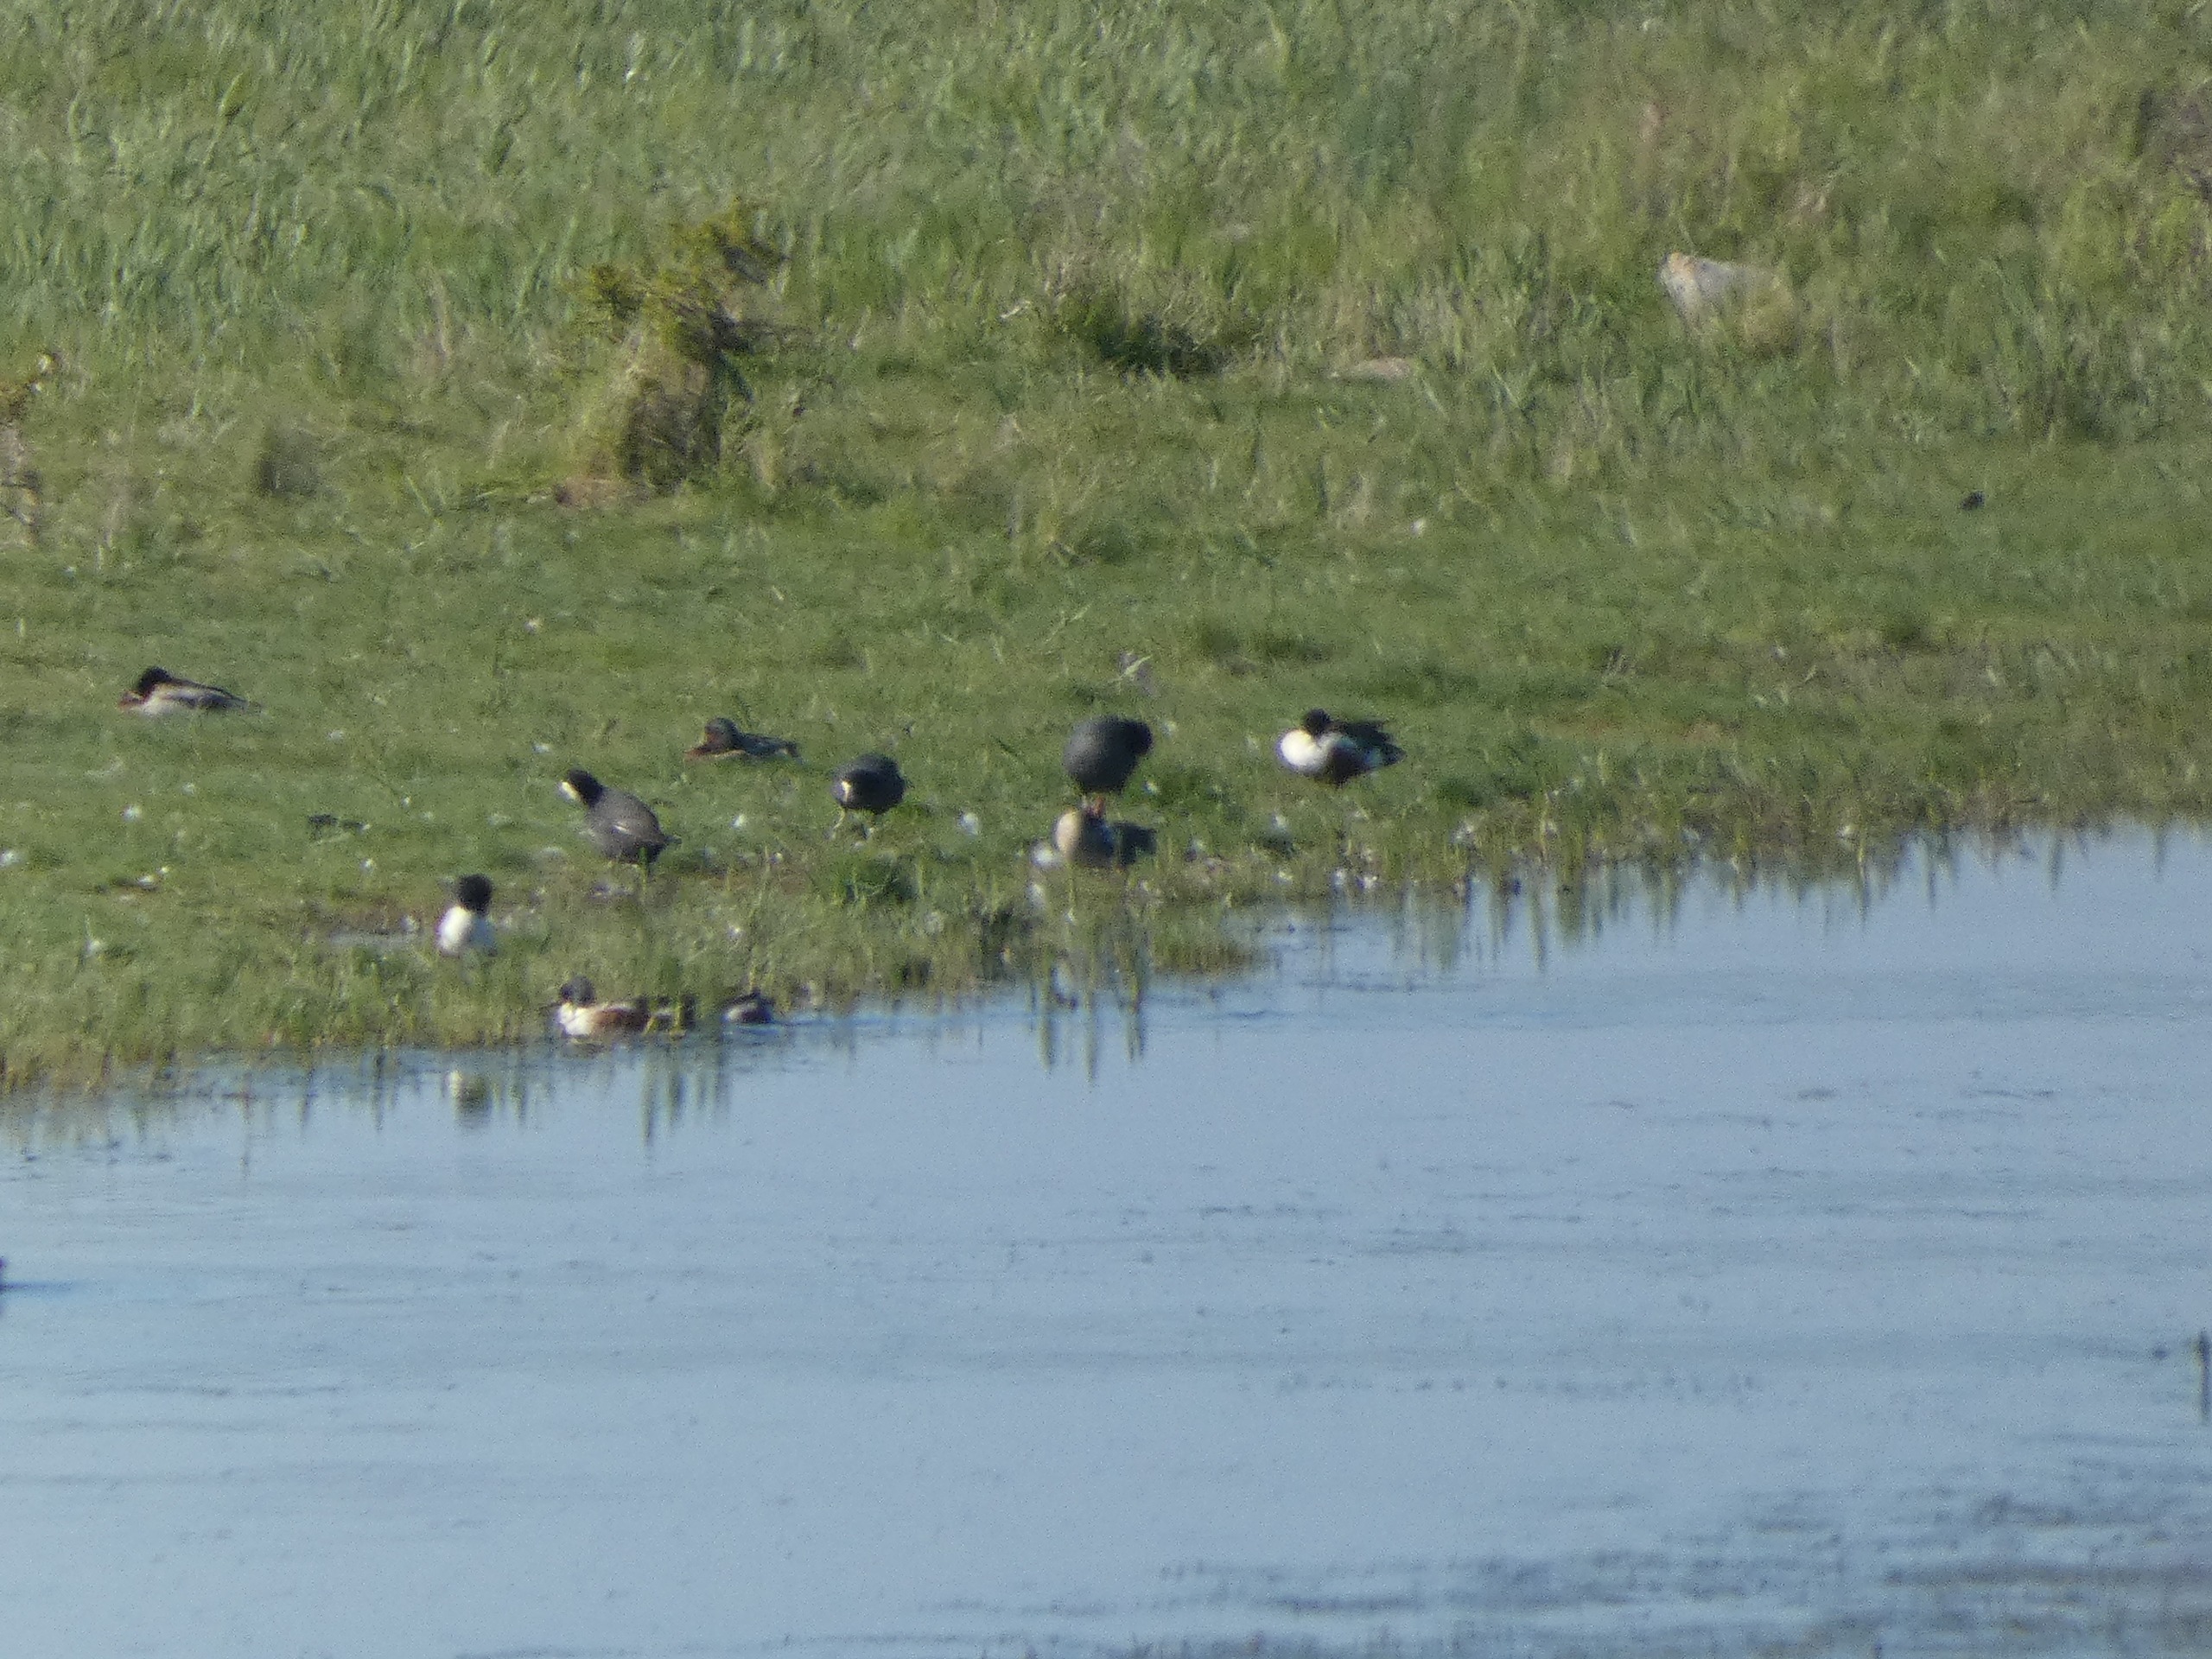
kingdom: Animalia
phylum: Chordata
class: Aves
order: Gruiformes
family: Rallidae
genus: Fulica
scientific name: Fulica atra
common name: Blishøne
